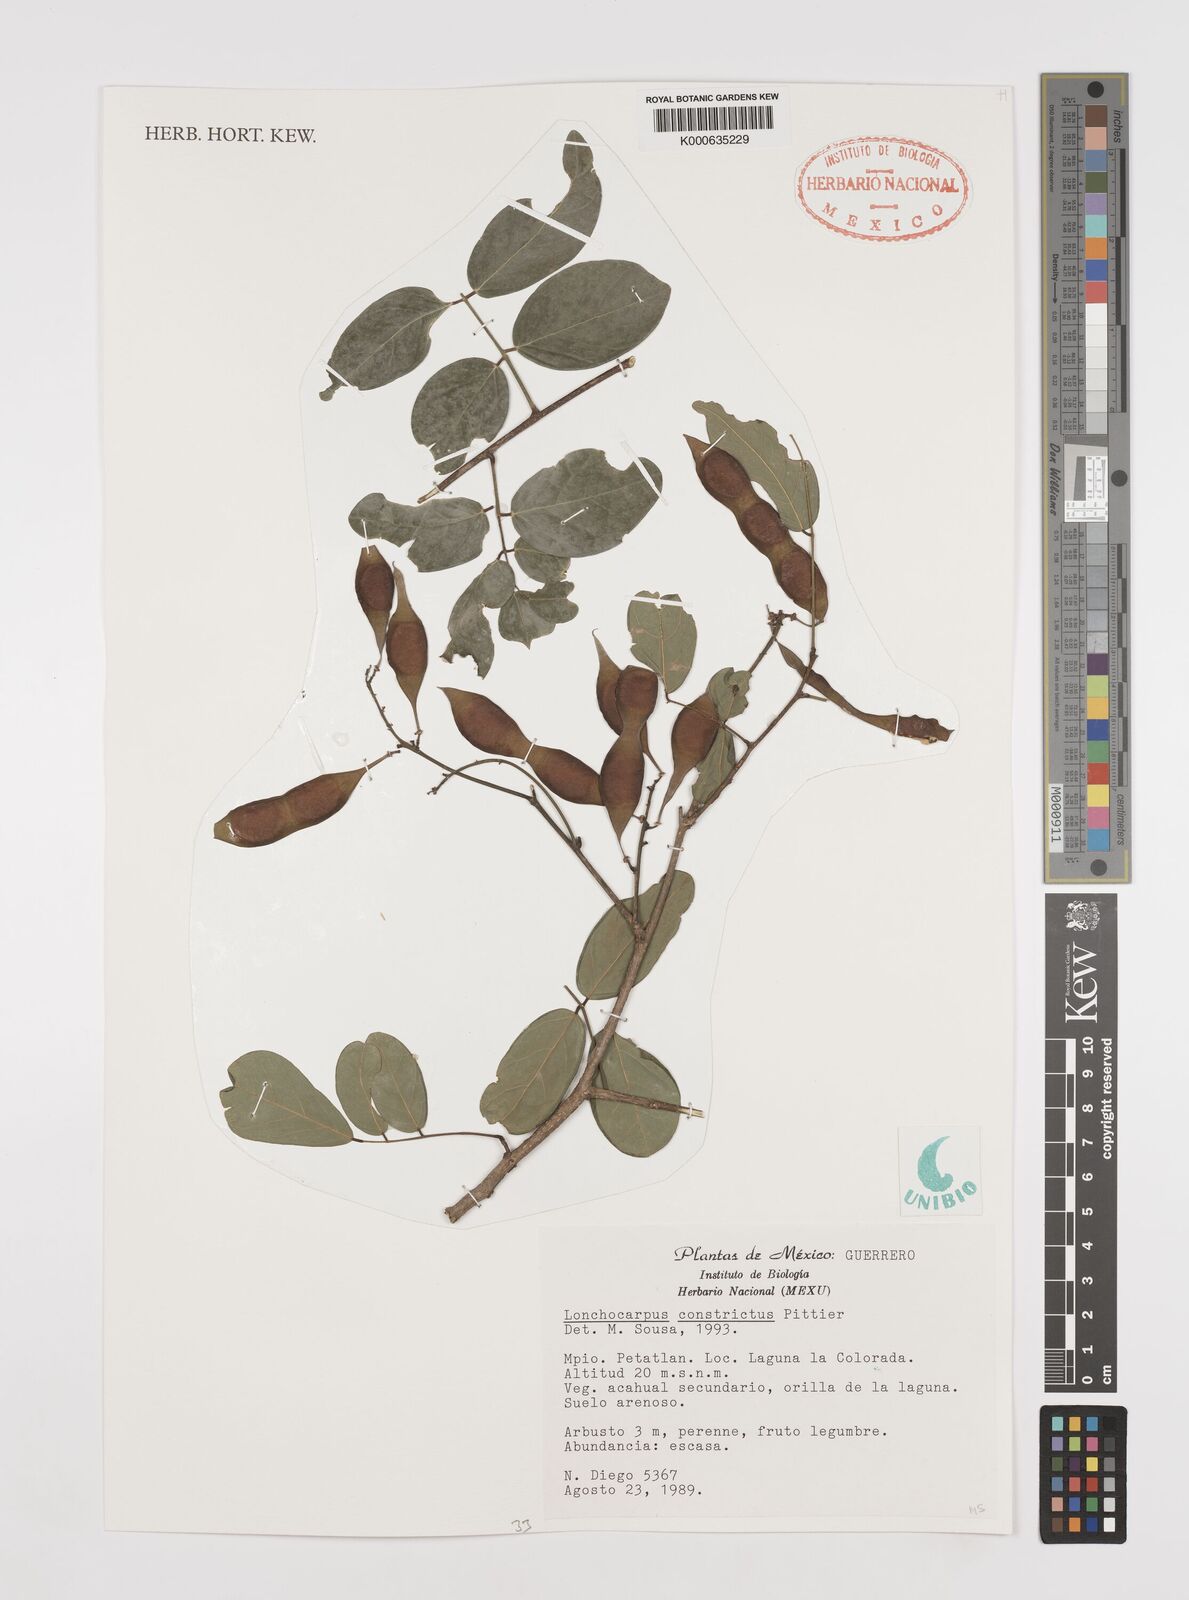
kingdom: Plantae
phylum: Tracheophyta
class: Magnoliopsida
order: Fabales
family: Fabaceae
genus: Lonchocarpus
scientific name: Lonchocarpus constrictus
